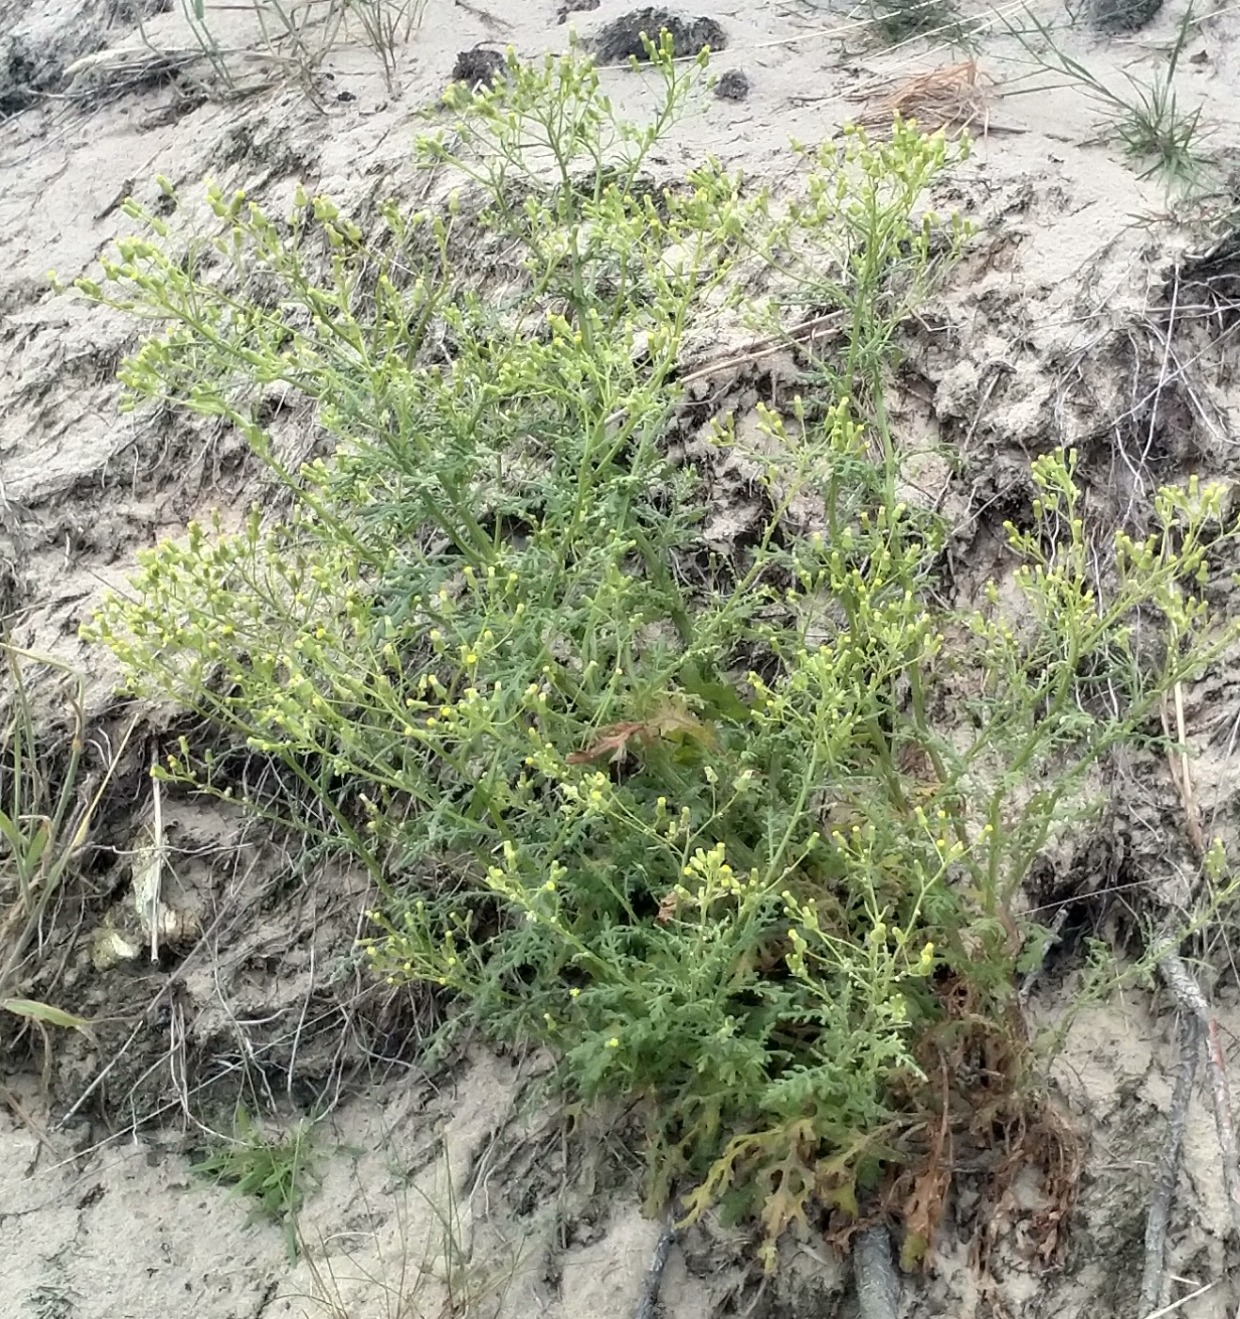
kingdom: Plantae
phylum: Tracheophyta
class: Magnoliopsida
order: Asterales
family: Asteraceae
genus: Senecio
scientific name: Senecio sylvaticus
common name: Skov-brandbæger
